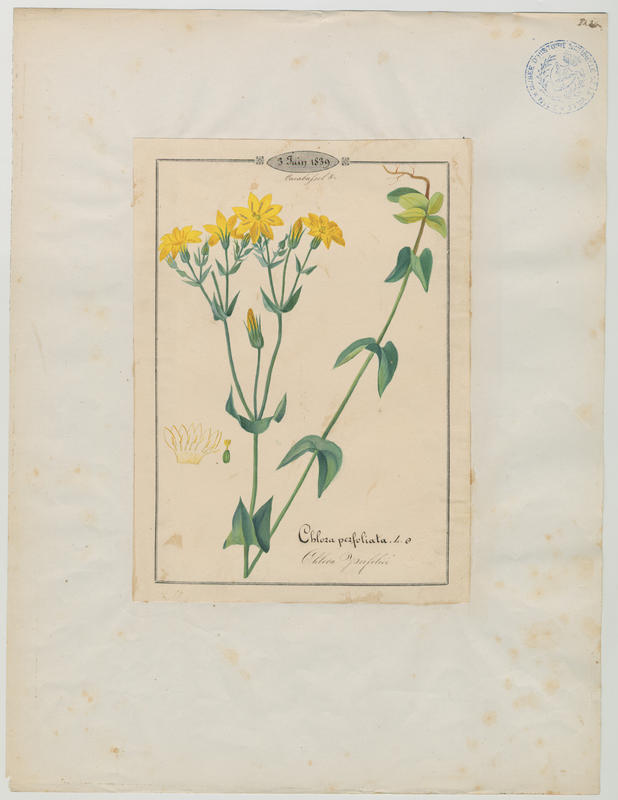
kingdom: Plantae
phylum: Tracheophyta
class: Magnoliopsida
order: Gentianales
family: Gentianaceae
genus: Blackstonia
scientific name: Blackstonia perfoliata
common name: Yellow-wort
